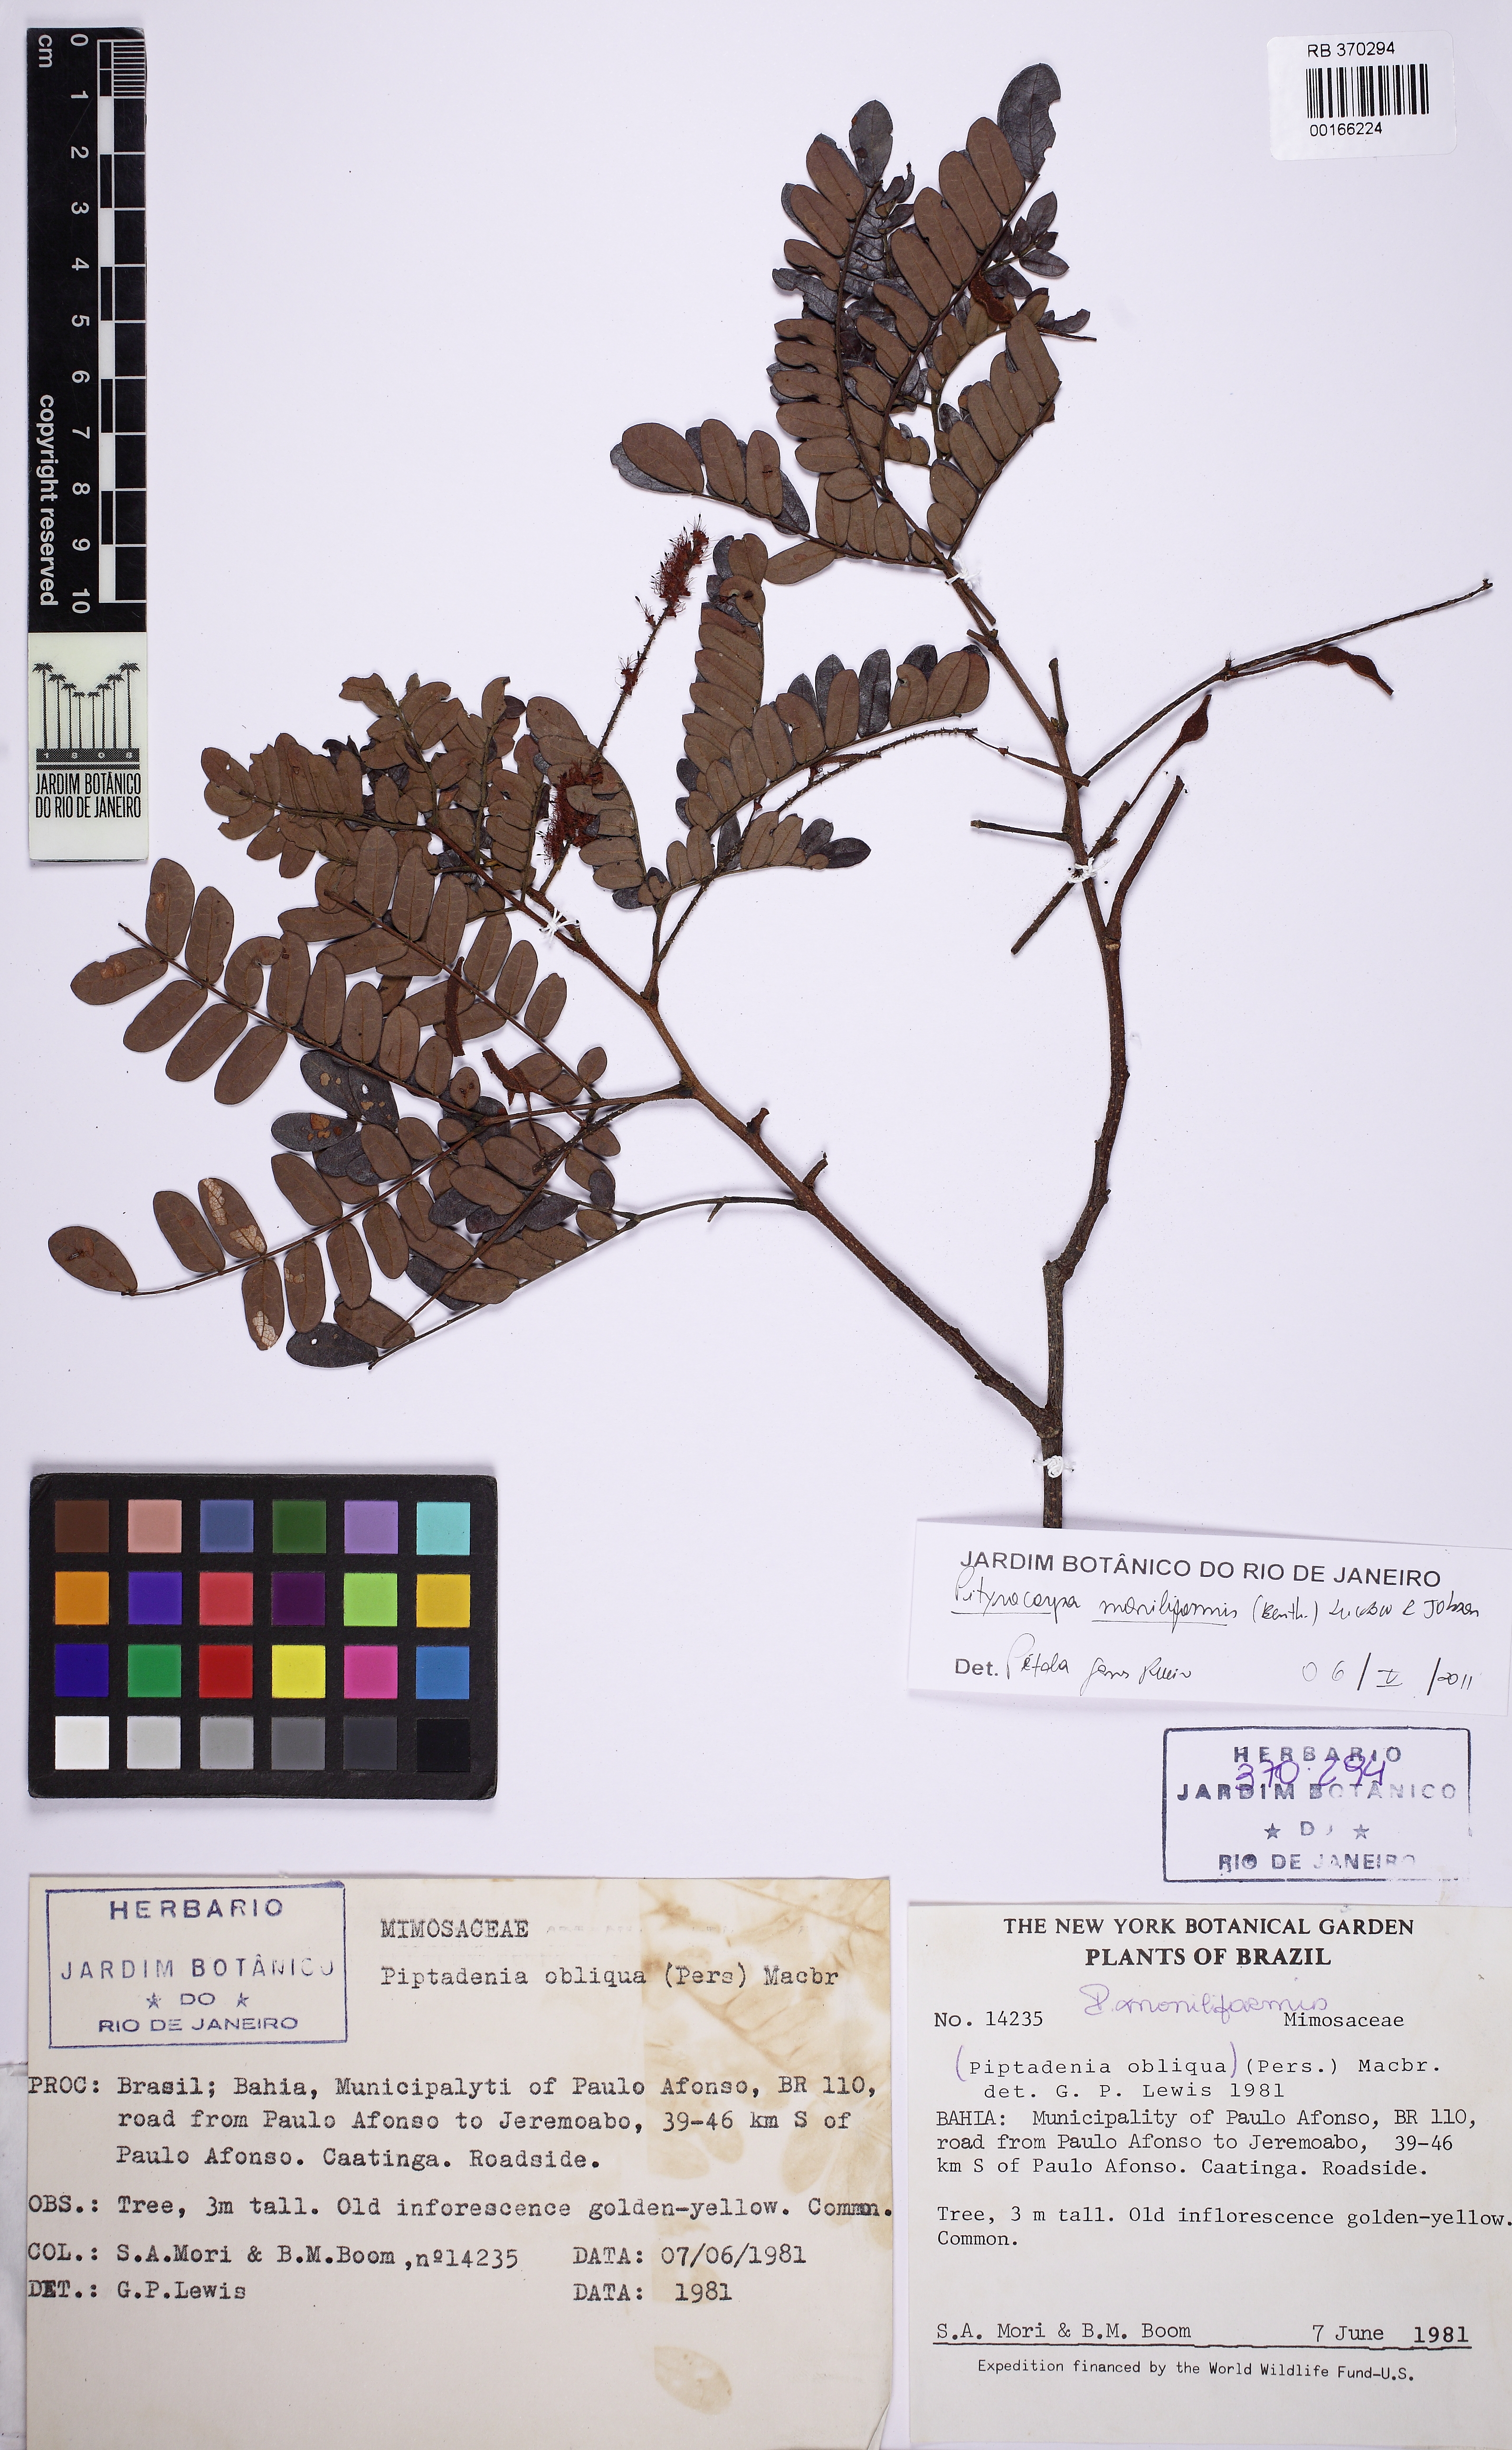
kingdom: Plantae
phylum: Tracheophyta
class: Magnoliopsida
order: Fabales
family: Fabaceae
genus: Pityrocarpa
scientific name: Pityrocarpa moniliformis
